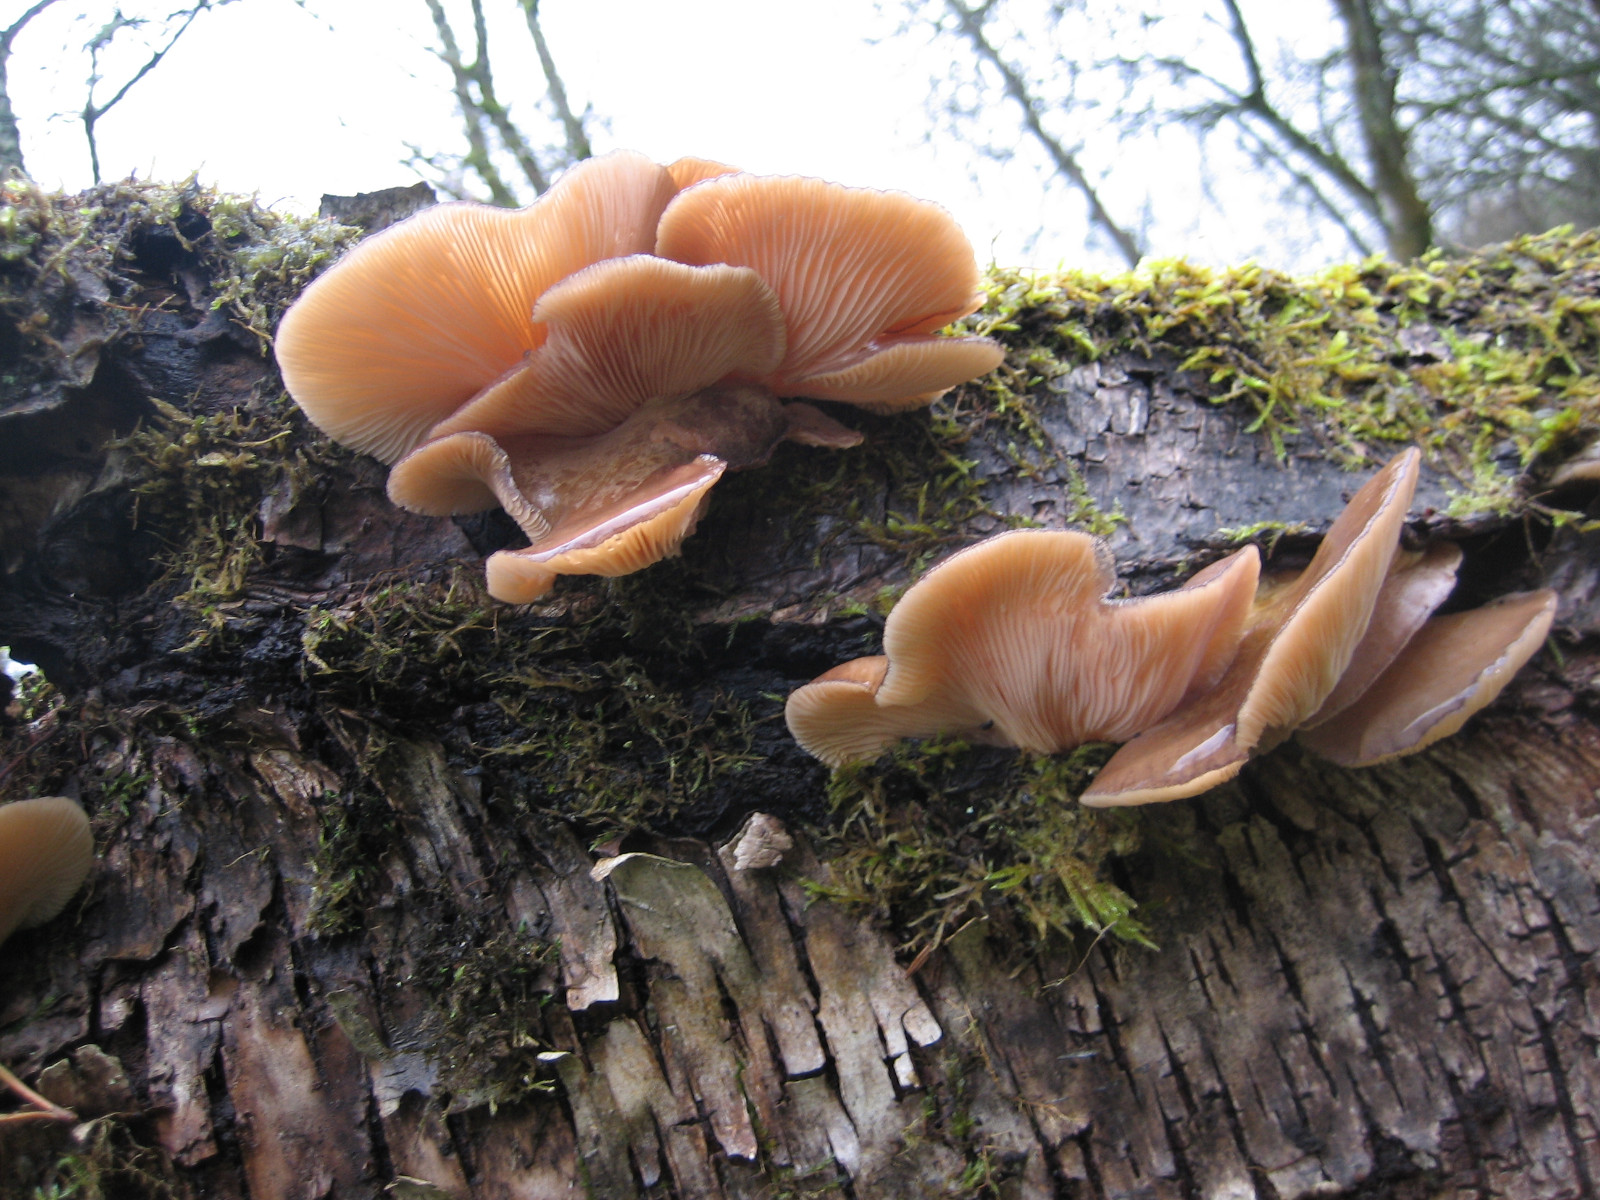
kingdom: Fungi
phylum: Basidiomycota
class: Agaricomycetes
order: Agaricales
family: Sarcomyxaceae
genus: Sarcomyxa
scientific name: Sarcomyxa serotina
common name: gummihat
